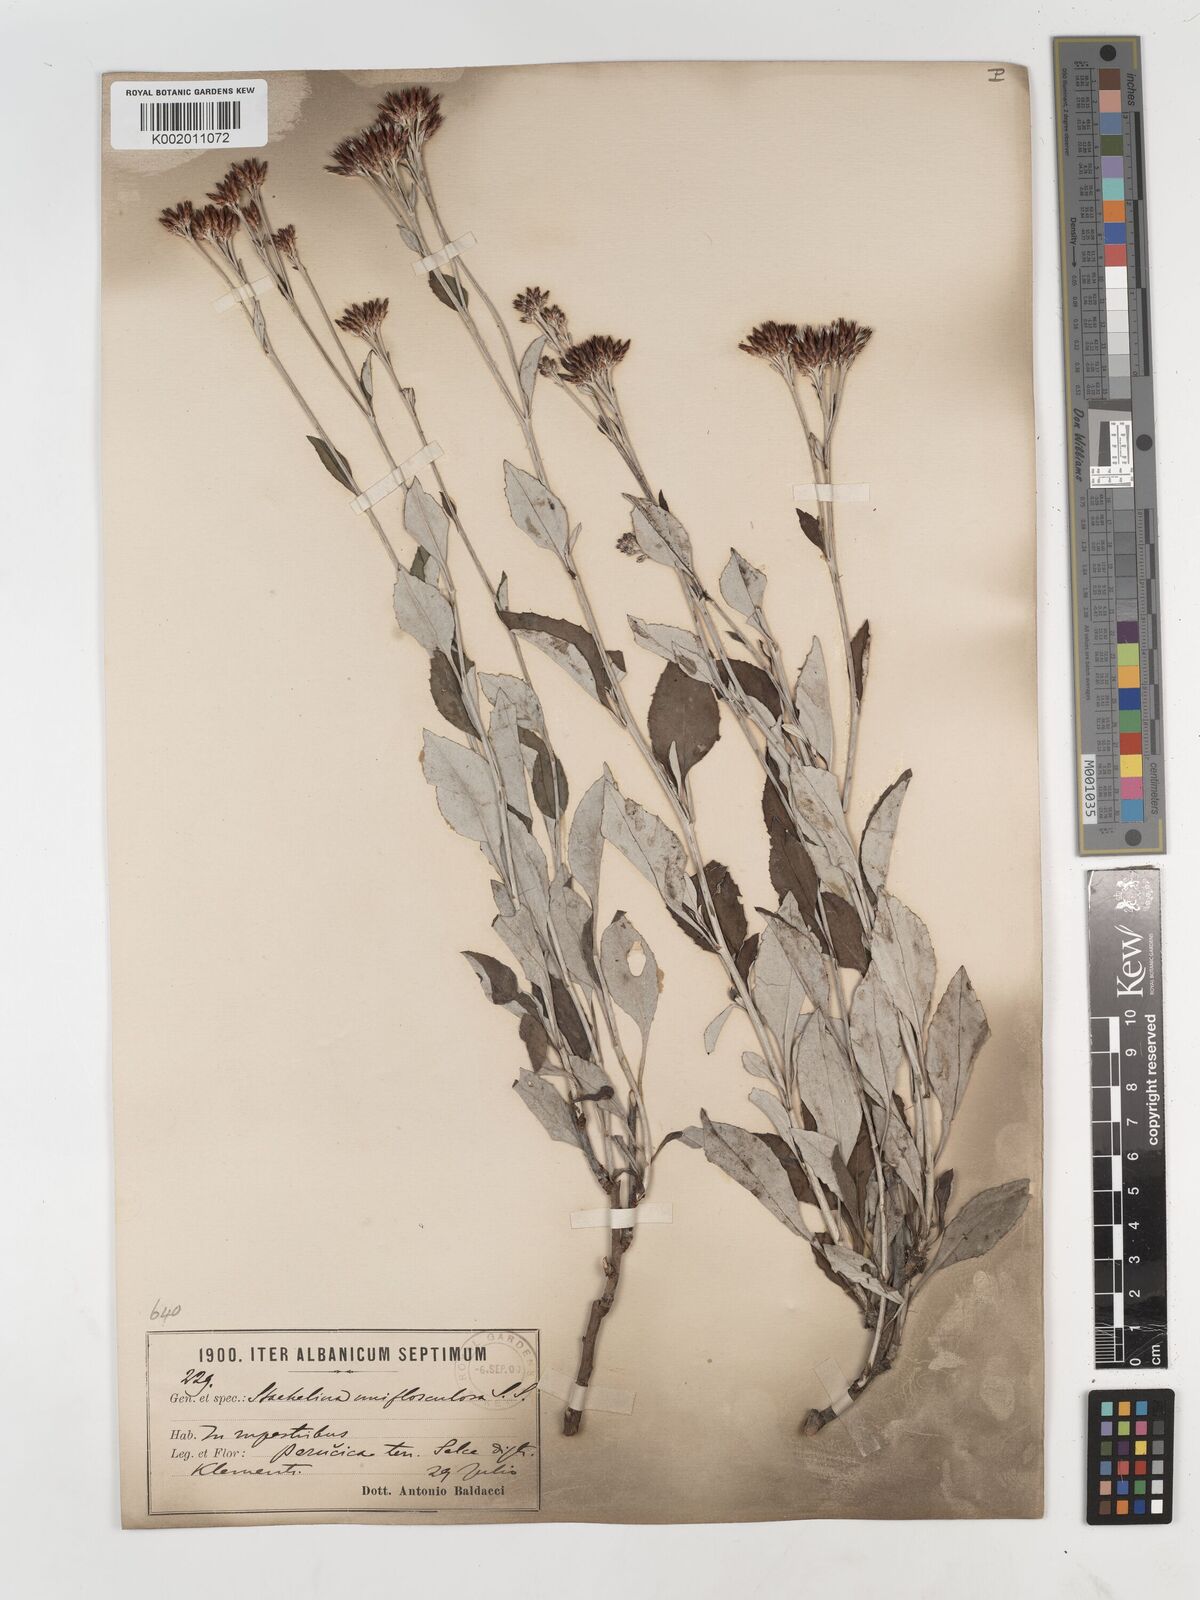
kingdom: Plantae
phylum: Tracheophyta
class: Magnoliopsida
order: Asterales
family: Asteraceae
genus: Staehelina
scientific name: Staehelina uniflosculosa
